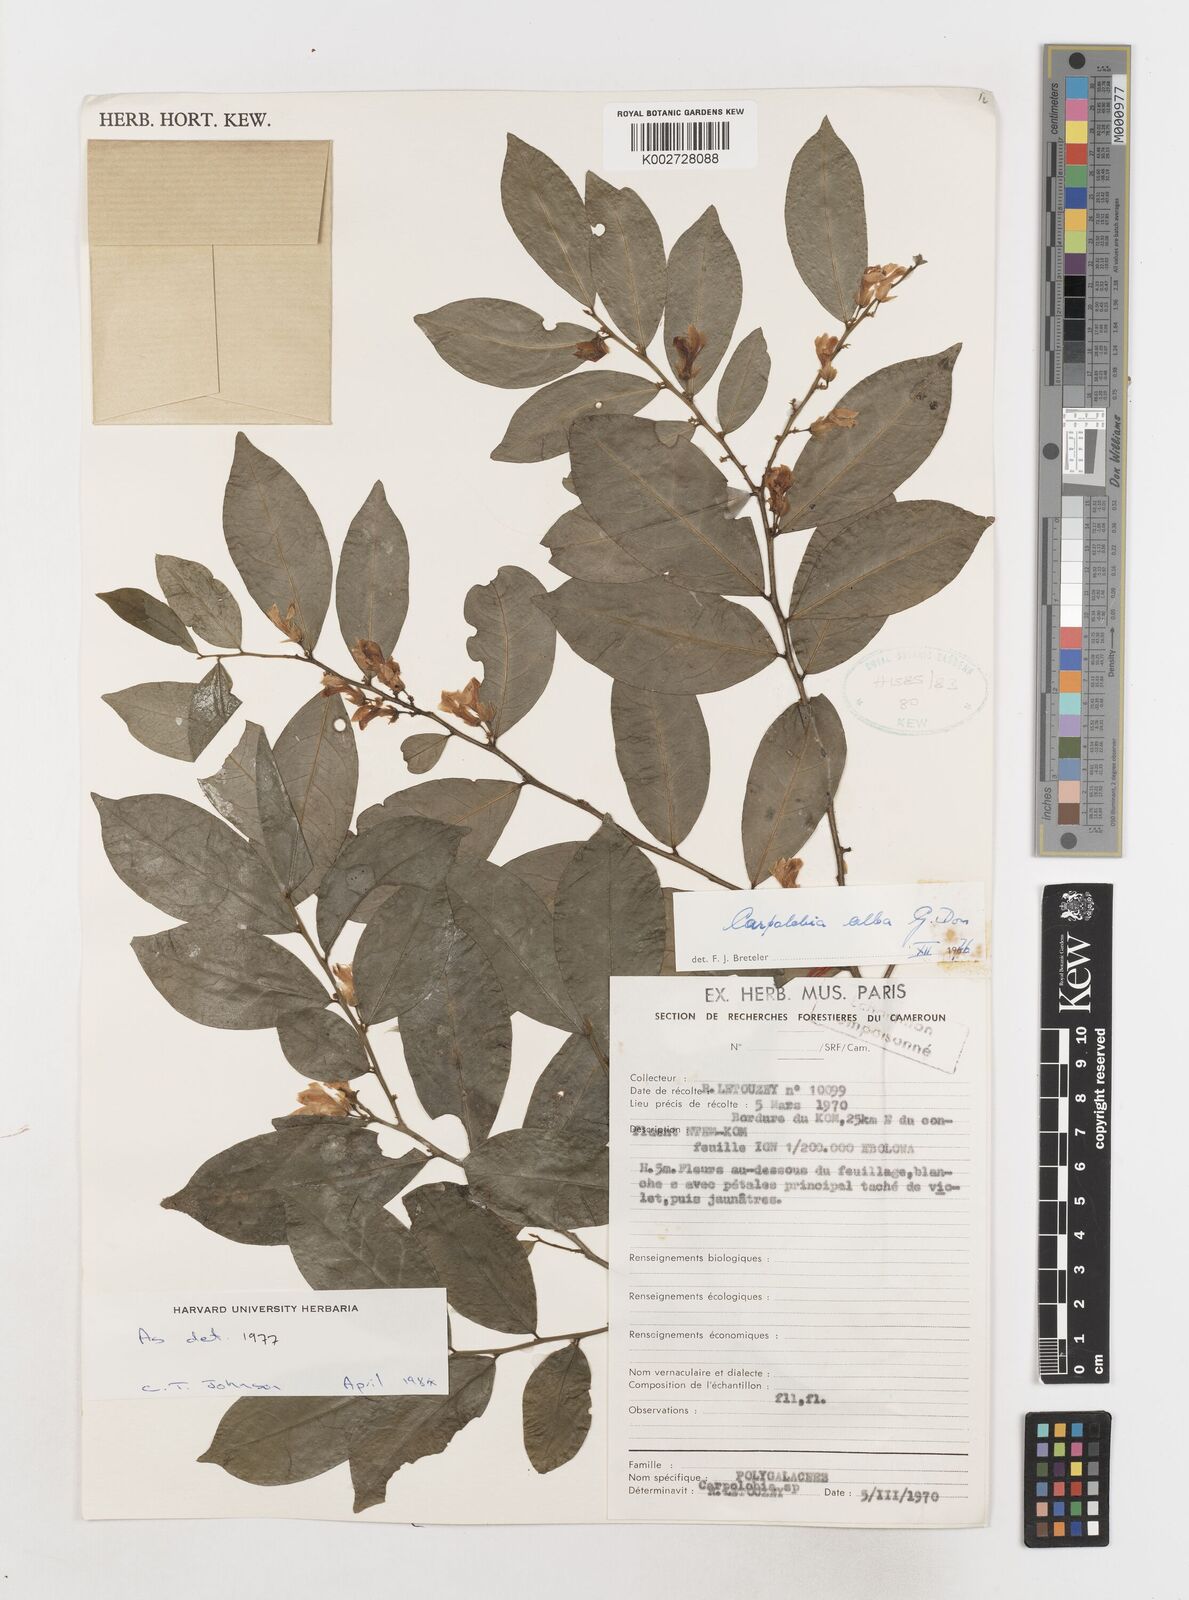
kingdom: Plantae
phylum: Tracheophyta
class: Magnoliopsida
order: Fabales
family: Polygalaceae
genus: Carpolobia
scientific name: Carpolobia alba
